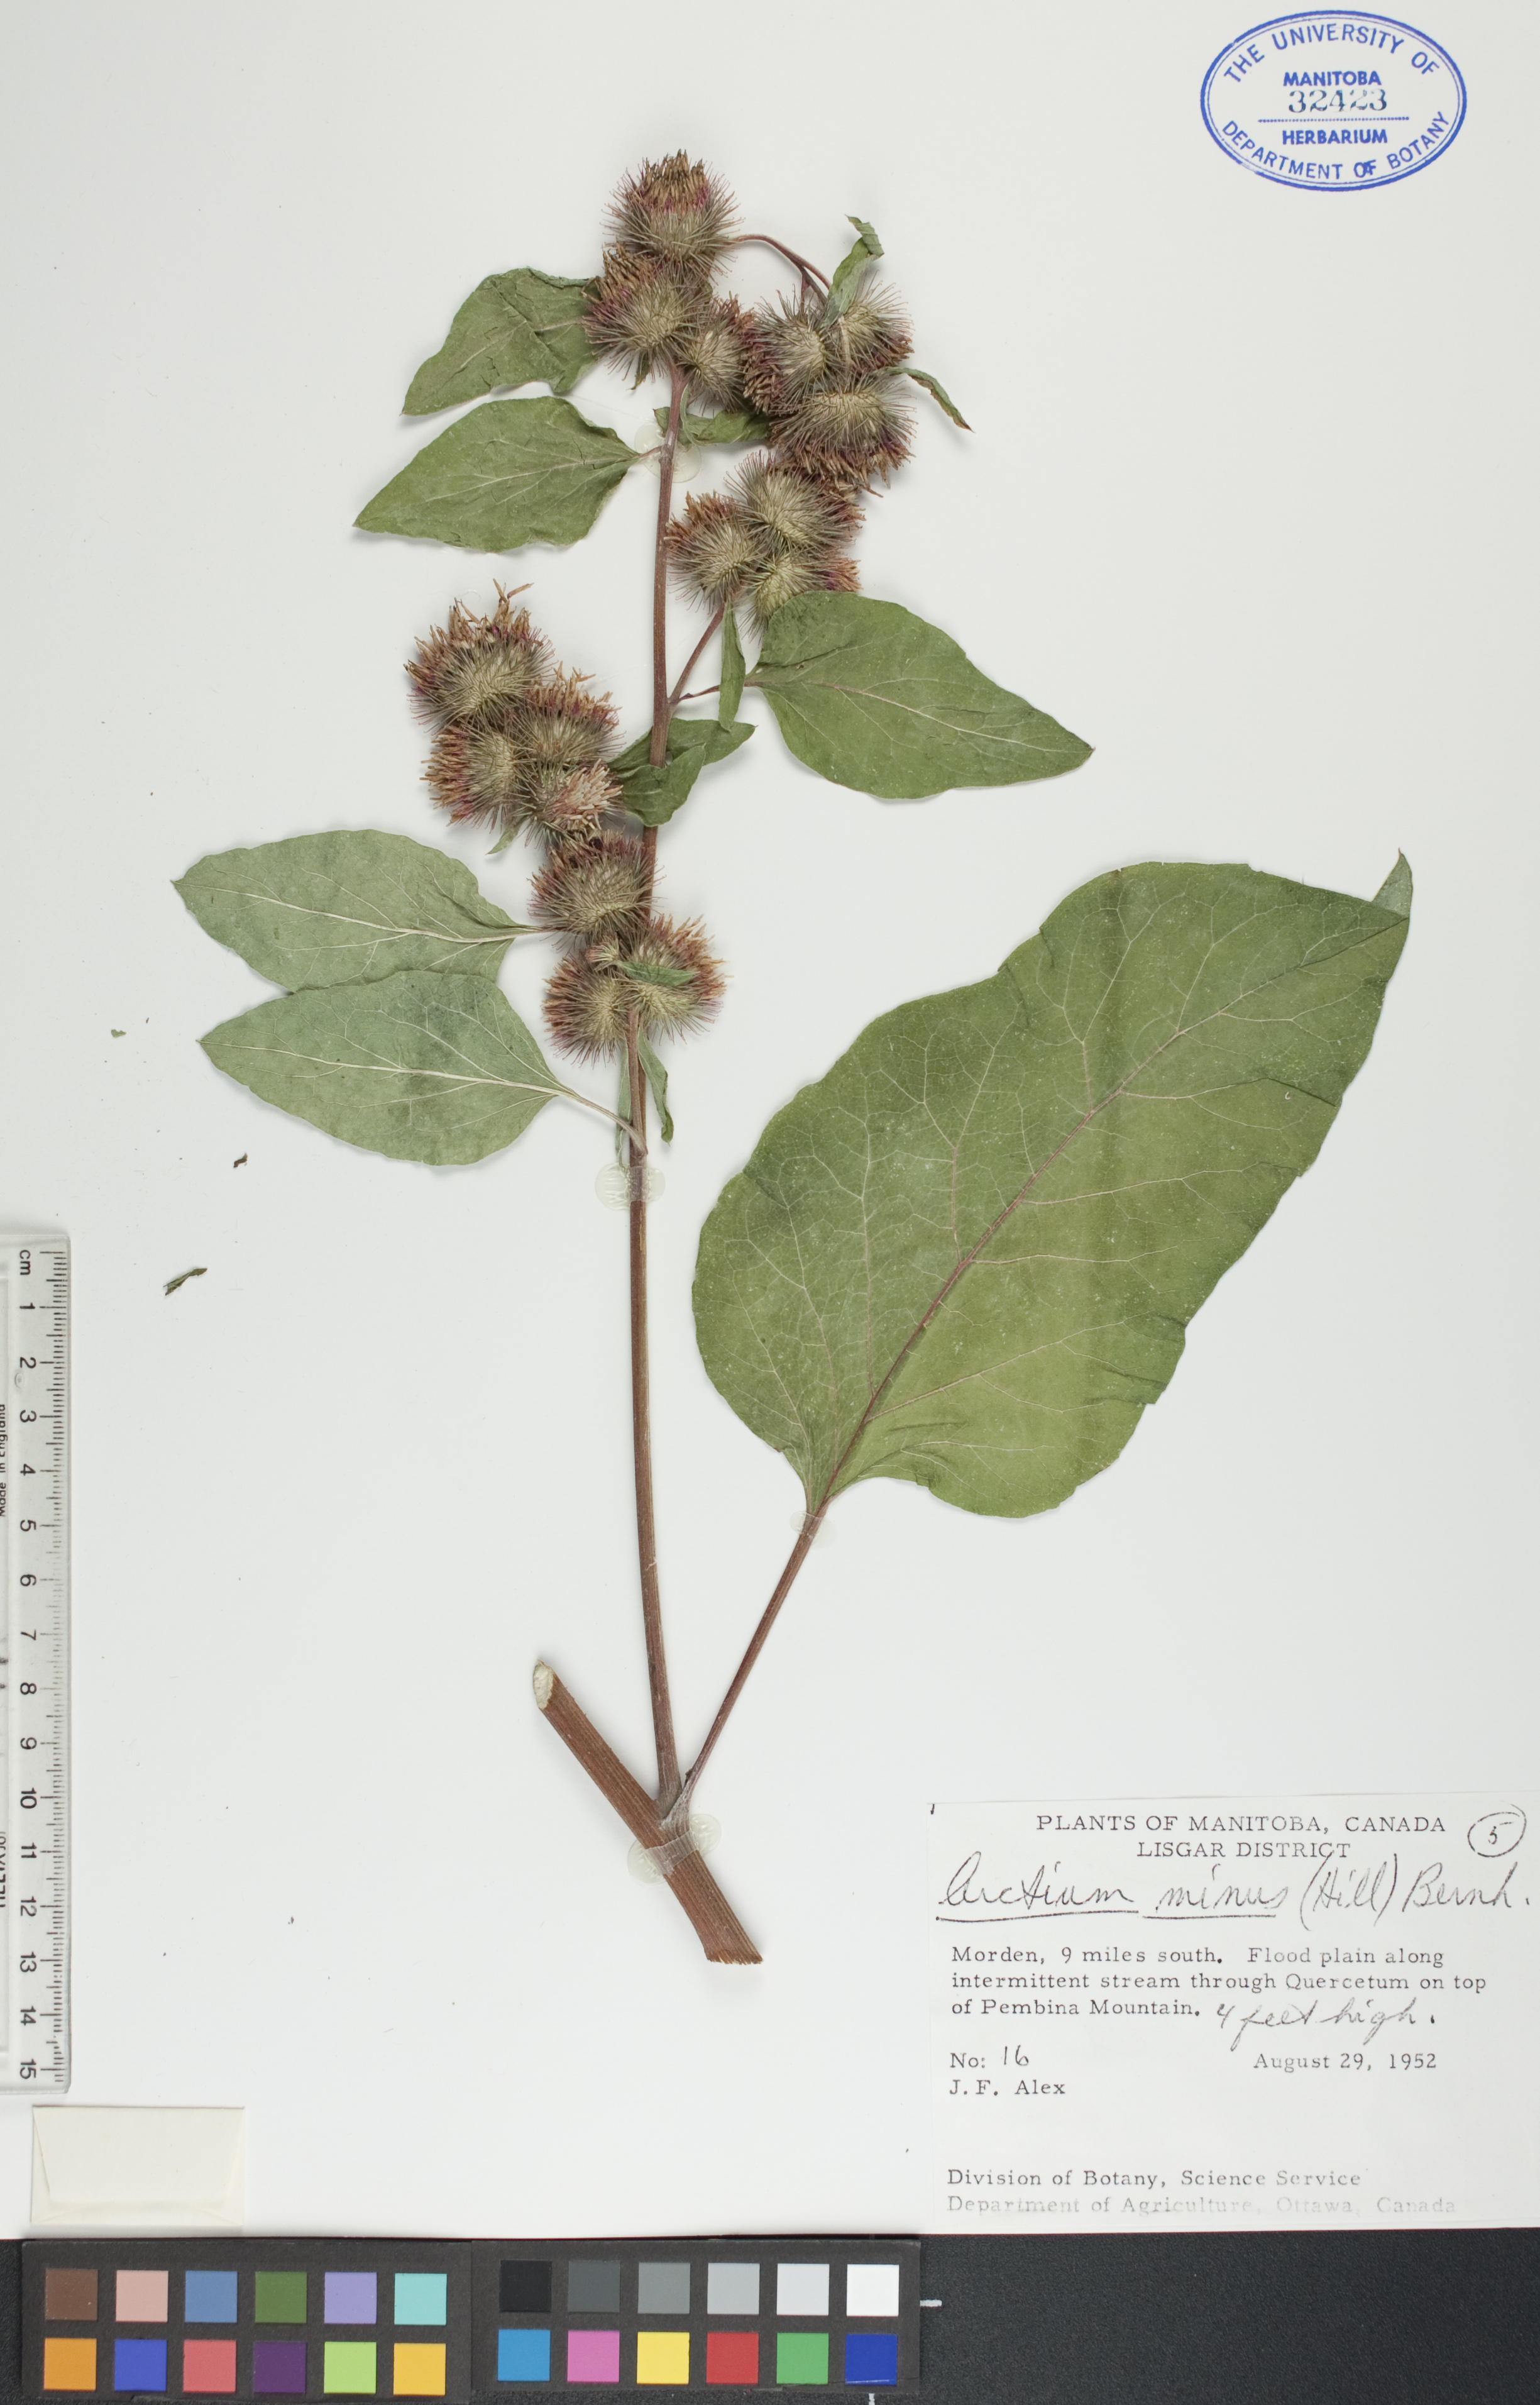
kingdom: Plantae
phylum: Tracheophyta
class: Magnoliopsida
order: Asterales
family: Asteraceae
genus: Arctium
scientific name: Arctium minus
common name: Lesser burdock
